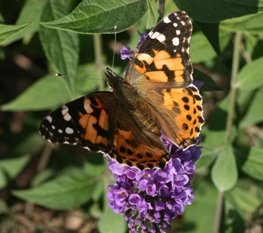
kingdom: Animalia
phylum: Arthropoda
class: Insecta
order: Lepidoptera
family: Nymphalidae
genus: Vanessa
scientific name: Vanessa cardui
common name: Painted Lady
